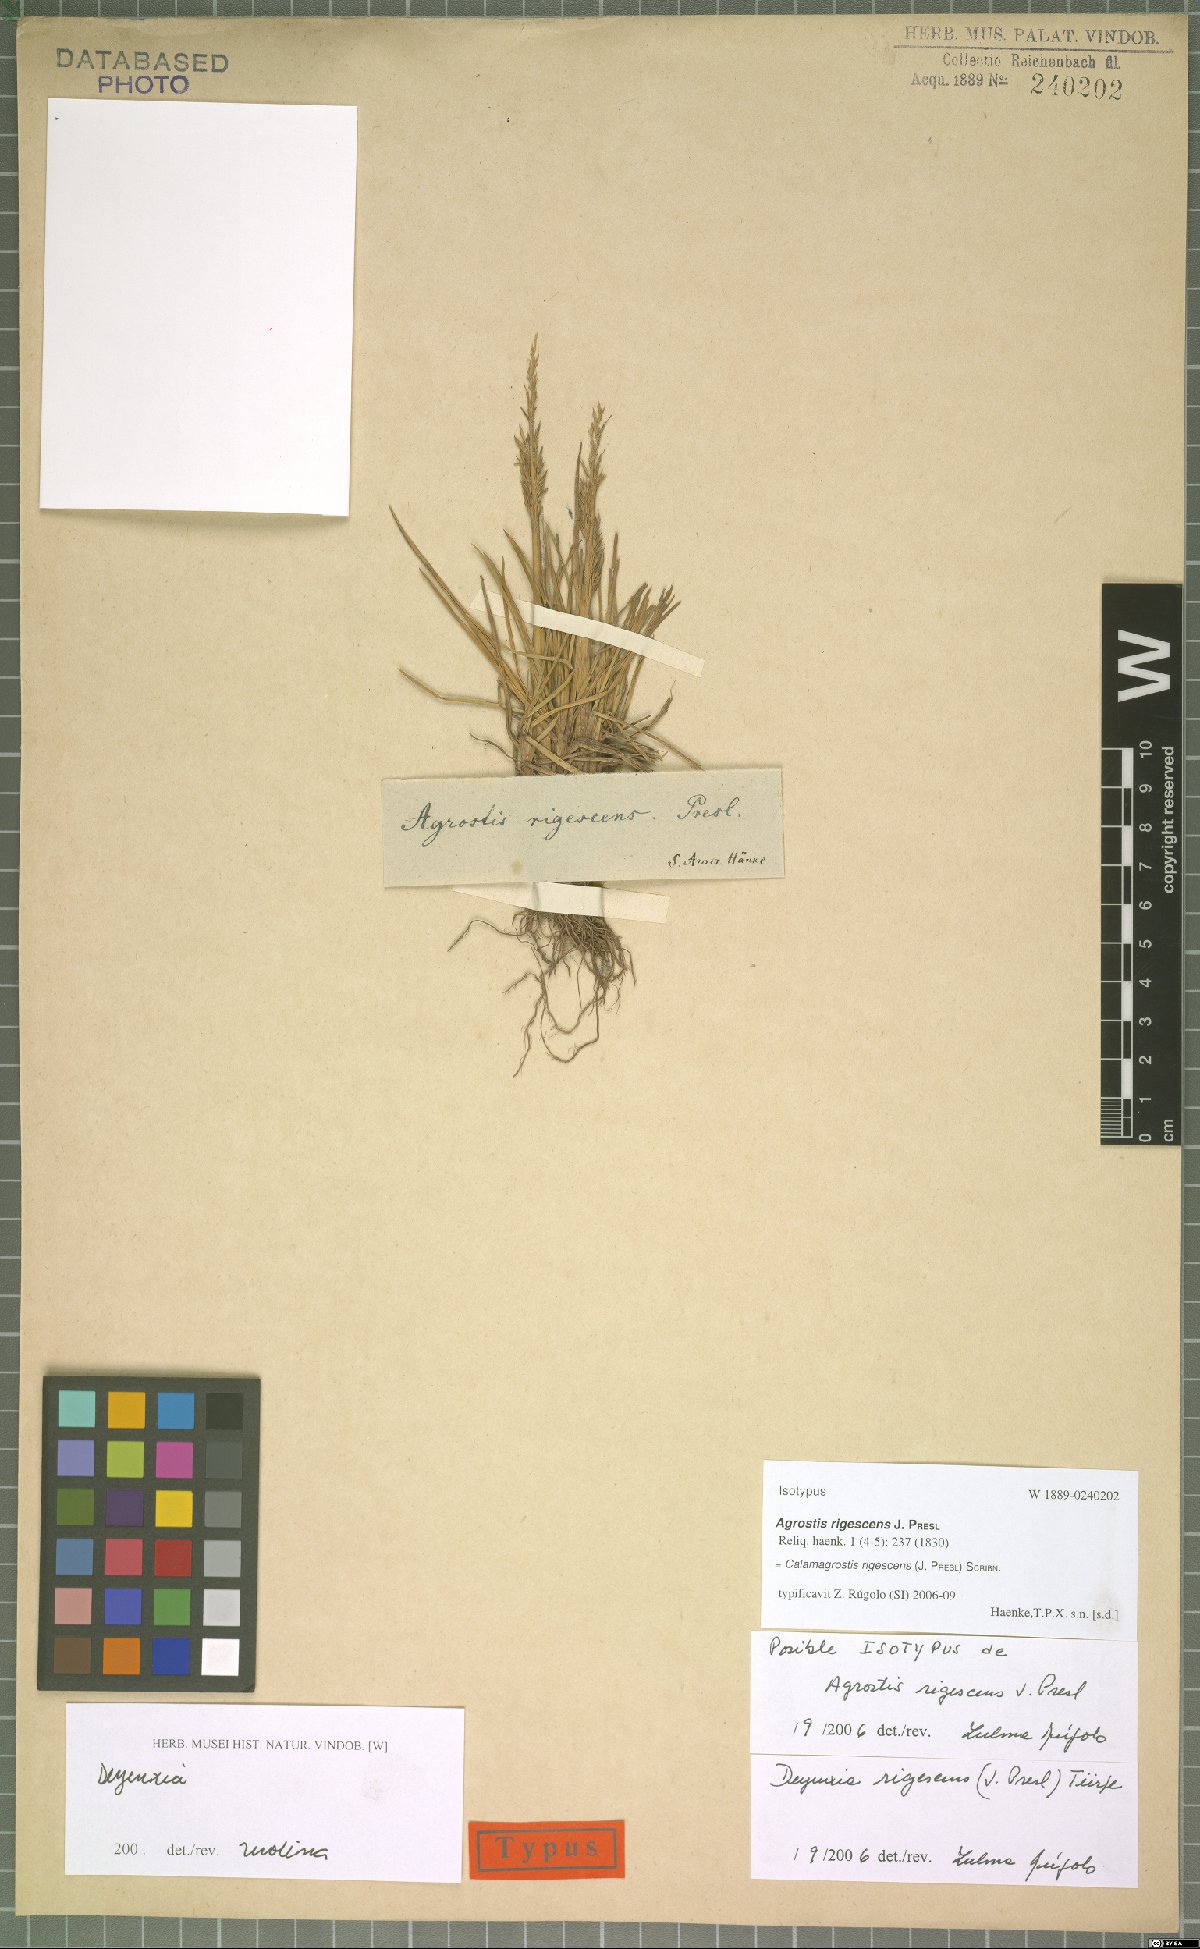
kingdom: Plantae
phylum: Tracheophyta
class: Liliopsida
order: Poales
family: Poaceae
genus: Cinnagrostis
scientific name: Cinnagrostis rigescens
